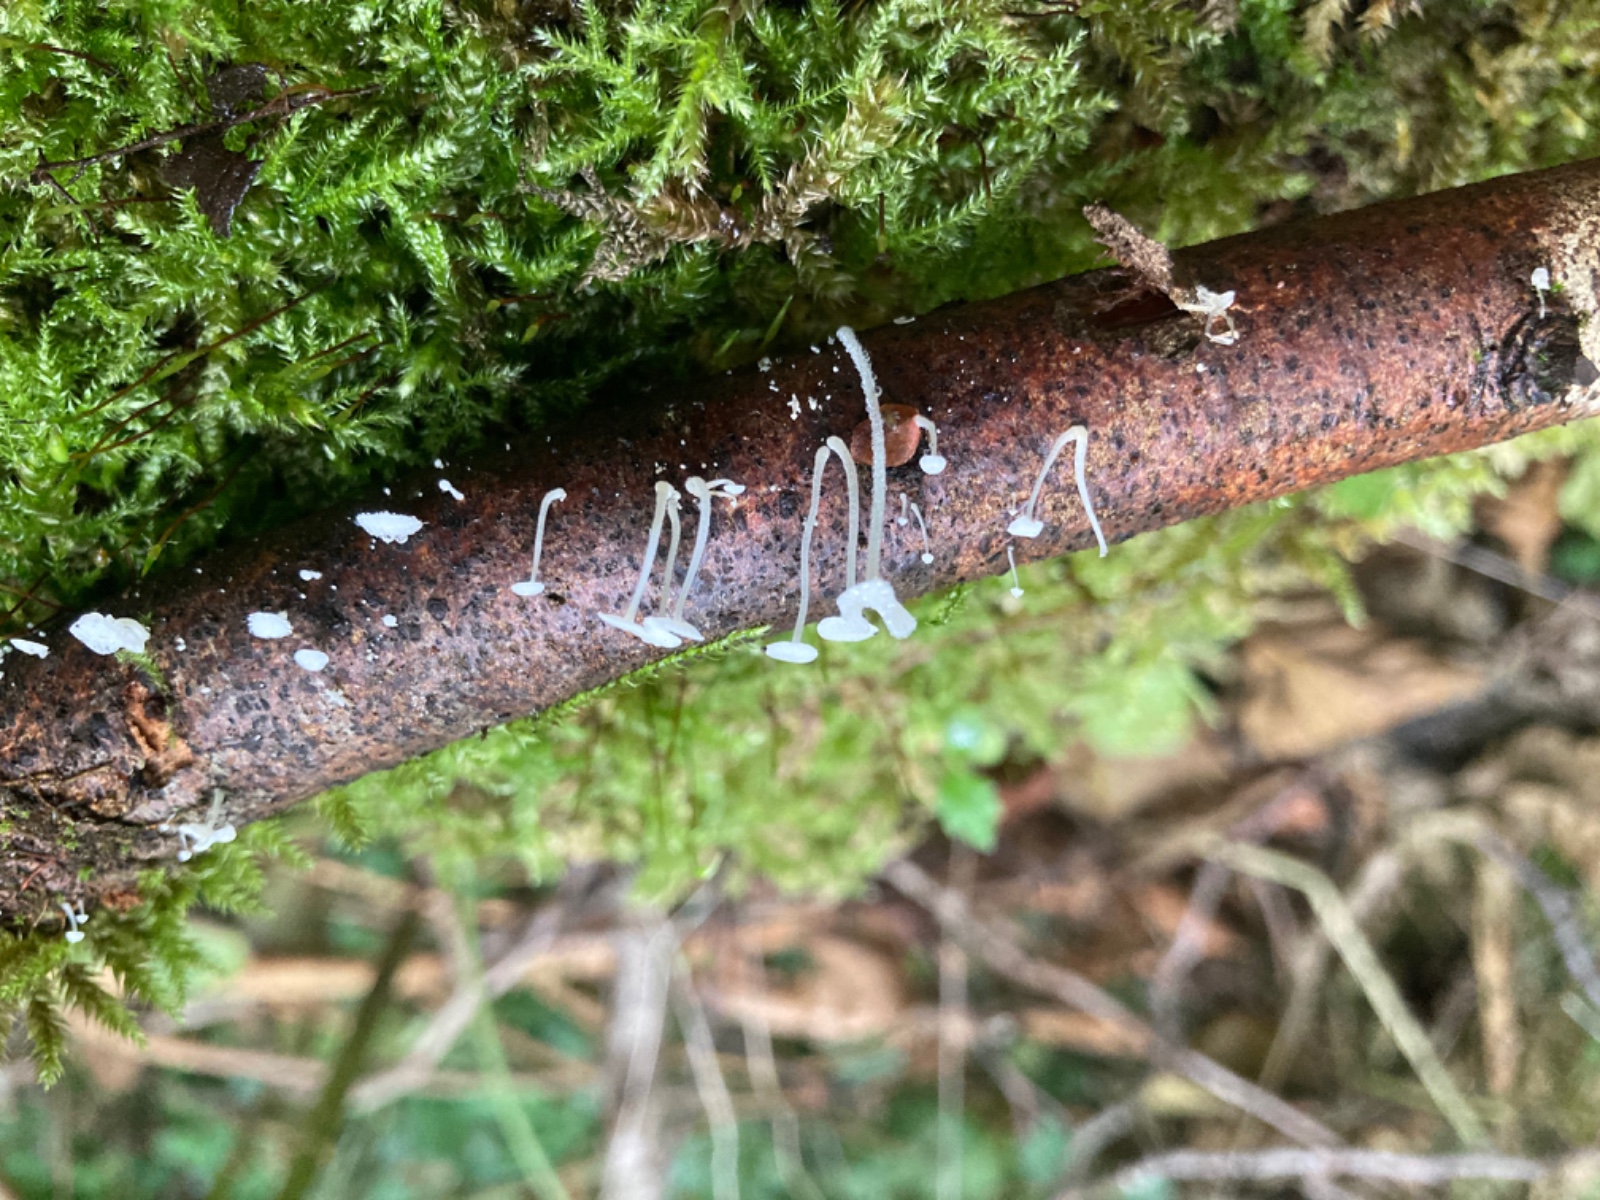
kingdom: Fungi
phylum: Basidiomycota
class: Agaricomycetes
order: Agaricales
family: Mycenaceae
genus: Hemimycena
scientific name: Hemimycena tortuosa
